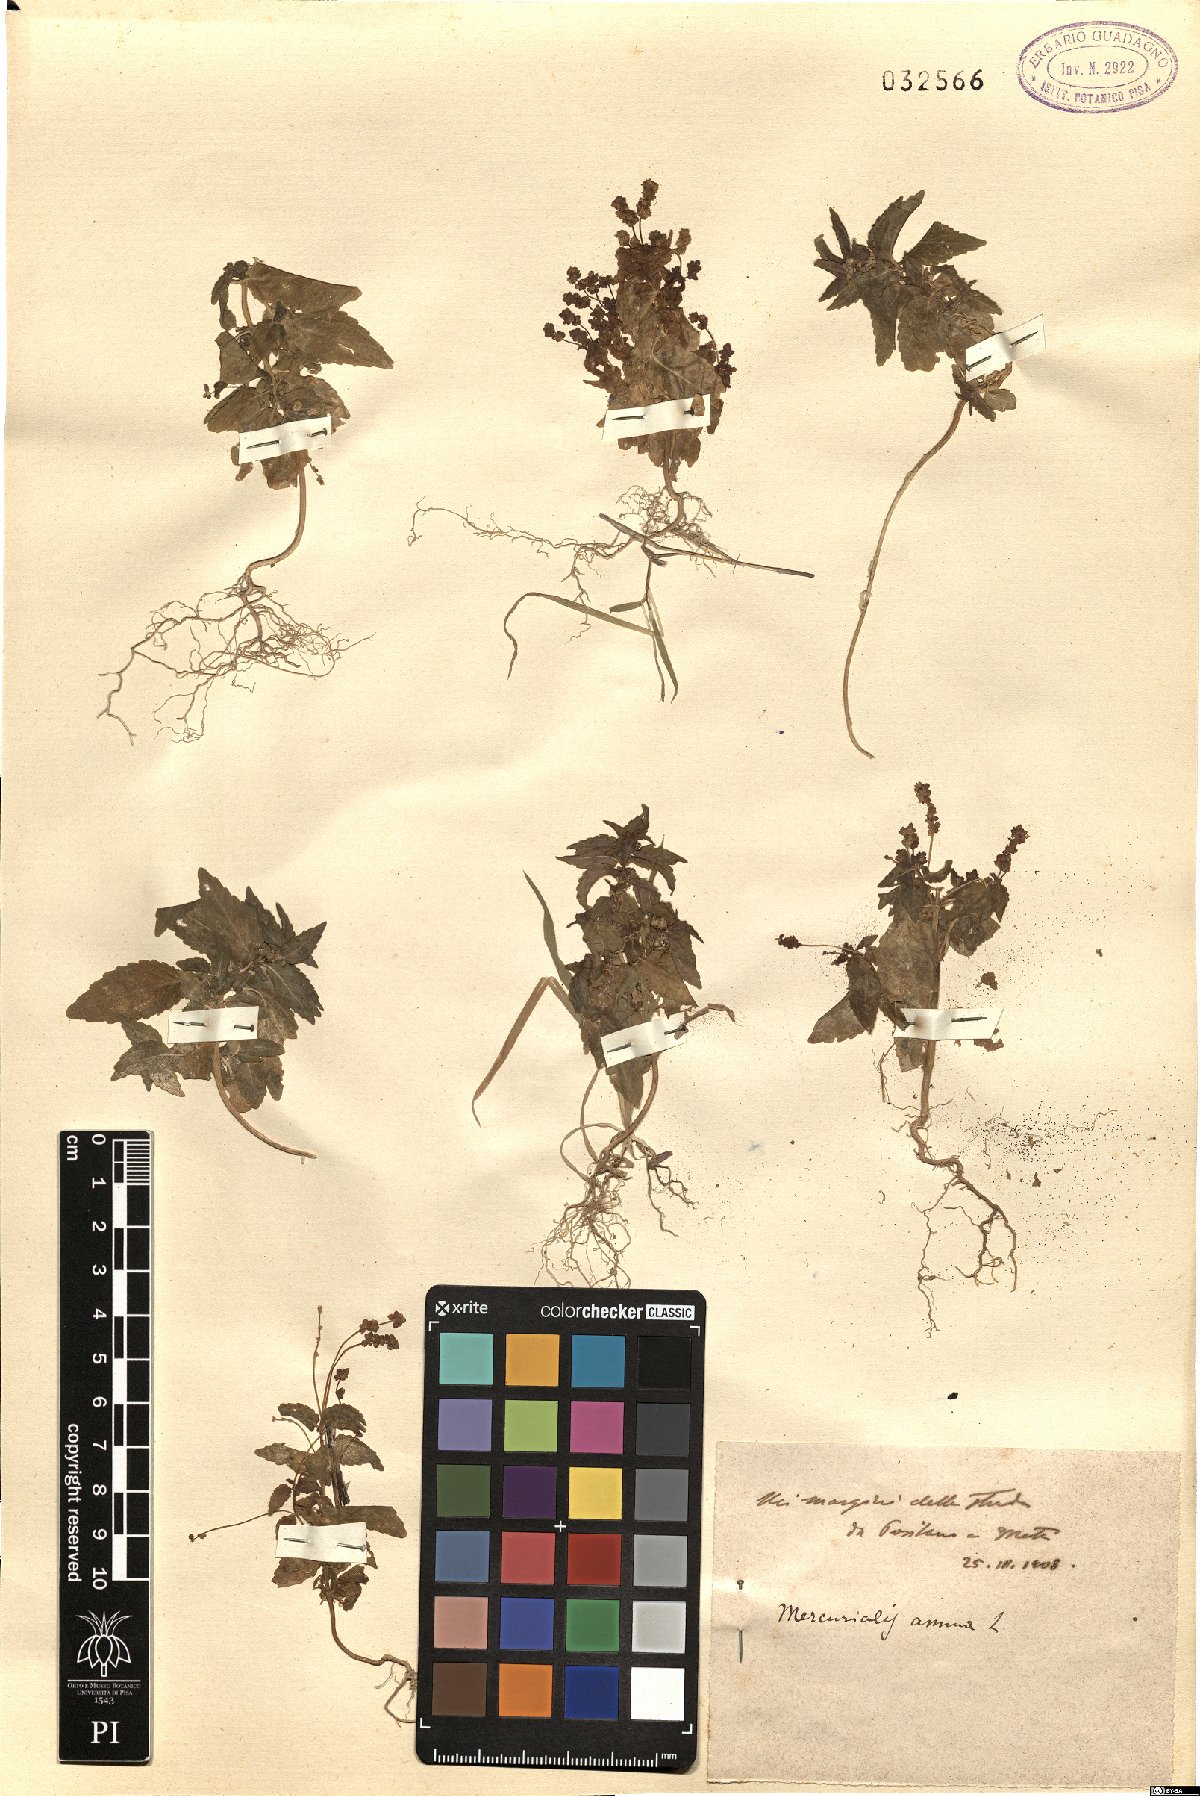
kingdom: Plantae
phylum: Tracheophyta
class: Magnoliopsida
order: Malpighiales
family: Euphorbiaceae
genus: Mercurialis
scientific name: Mercurialis annua
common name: Annual mercury
